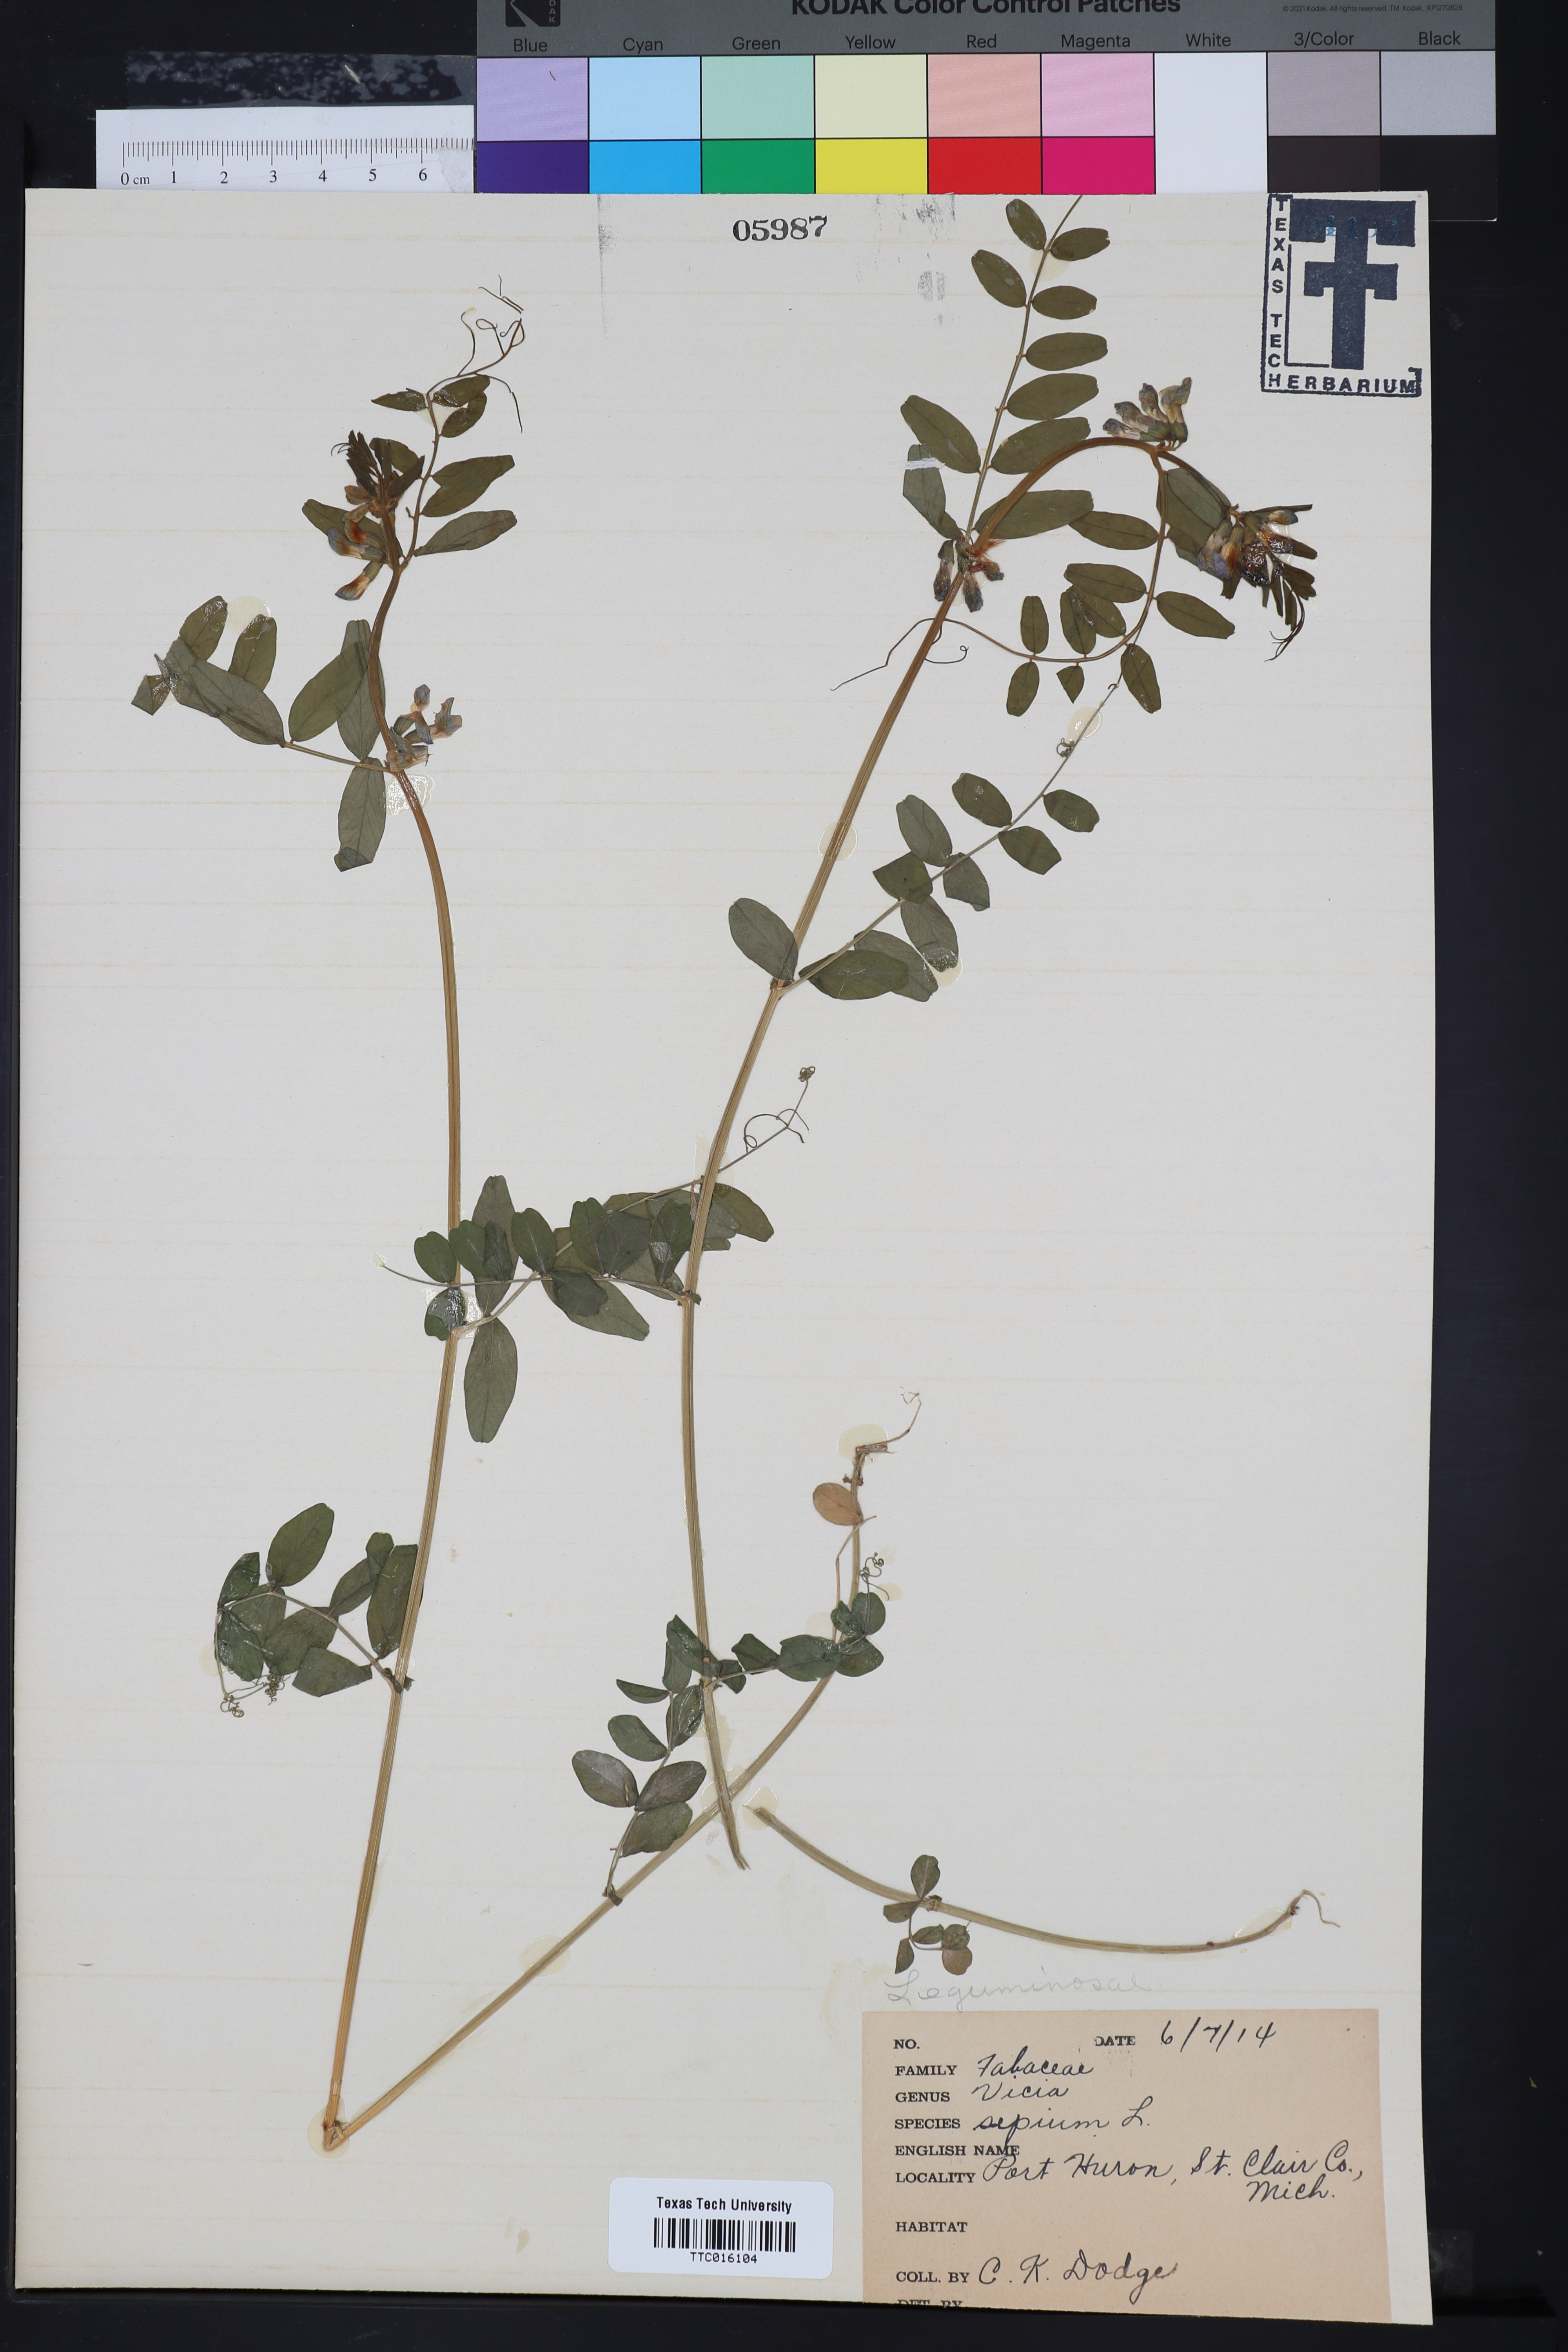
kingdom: Plantae
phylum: Tracheophyta
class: Magnoliopsida
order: Fabales
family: Fabaceae
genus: Vicia
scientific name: Vicia tetrasperma
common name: Smooth tare
